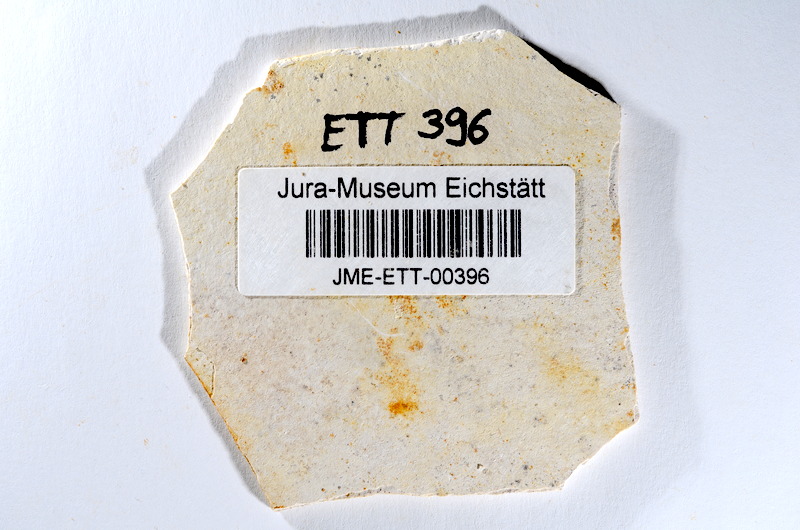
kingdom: Animalia
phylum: Chordata
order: Salmoniformes
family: Orthogonikleithridae
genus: Orthogonikleithrus
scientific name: Orthogonikleithrus hoelli
